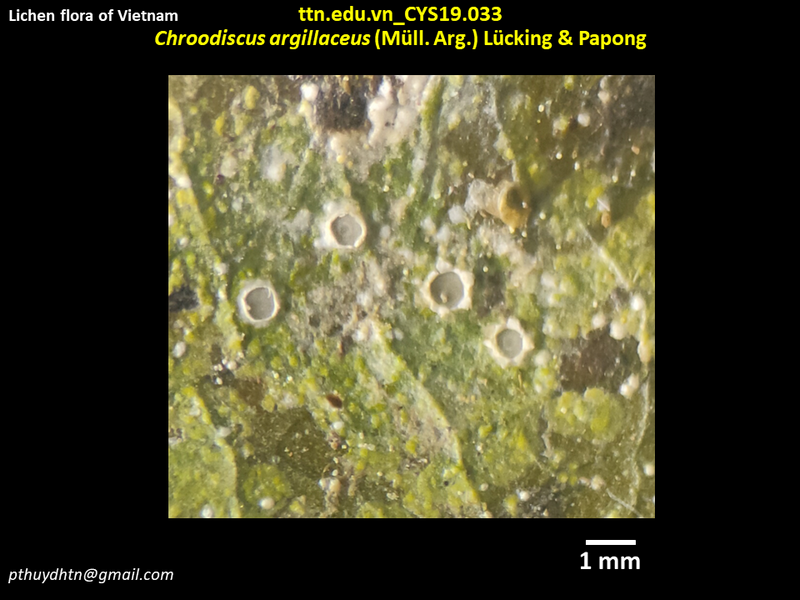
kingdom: Fungi
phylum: Ascomycota
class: Lecanoromycetes
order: Ostropales
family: Graphidaceae
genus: Chroodiscus
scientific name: Chroodiscus argillaceus
